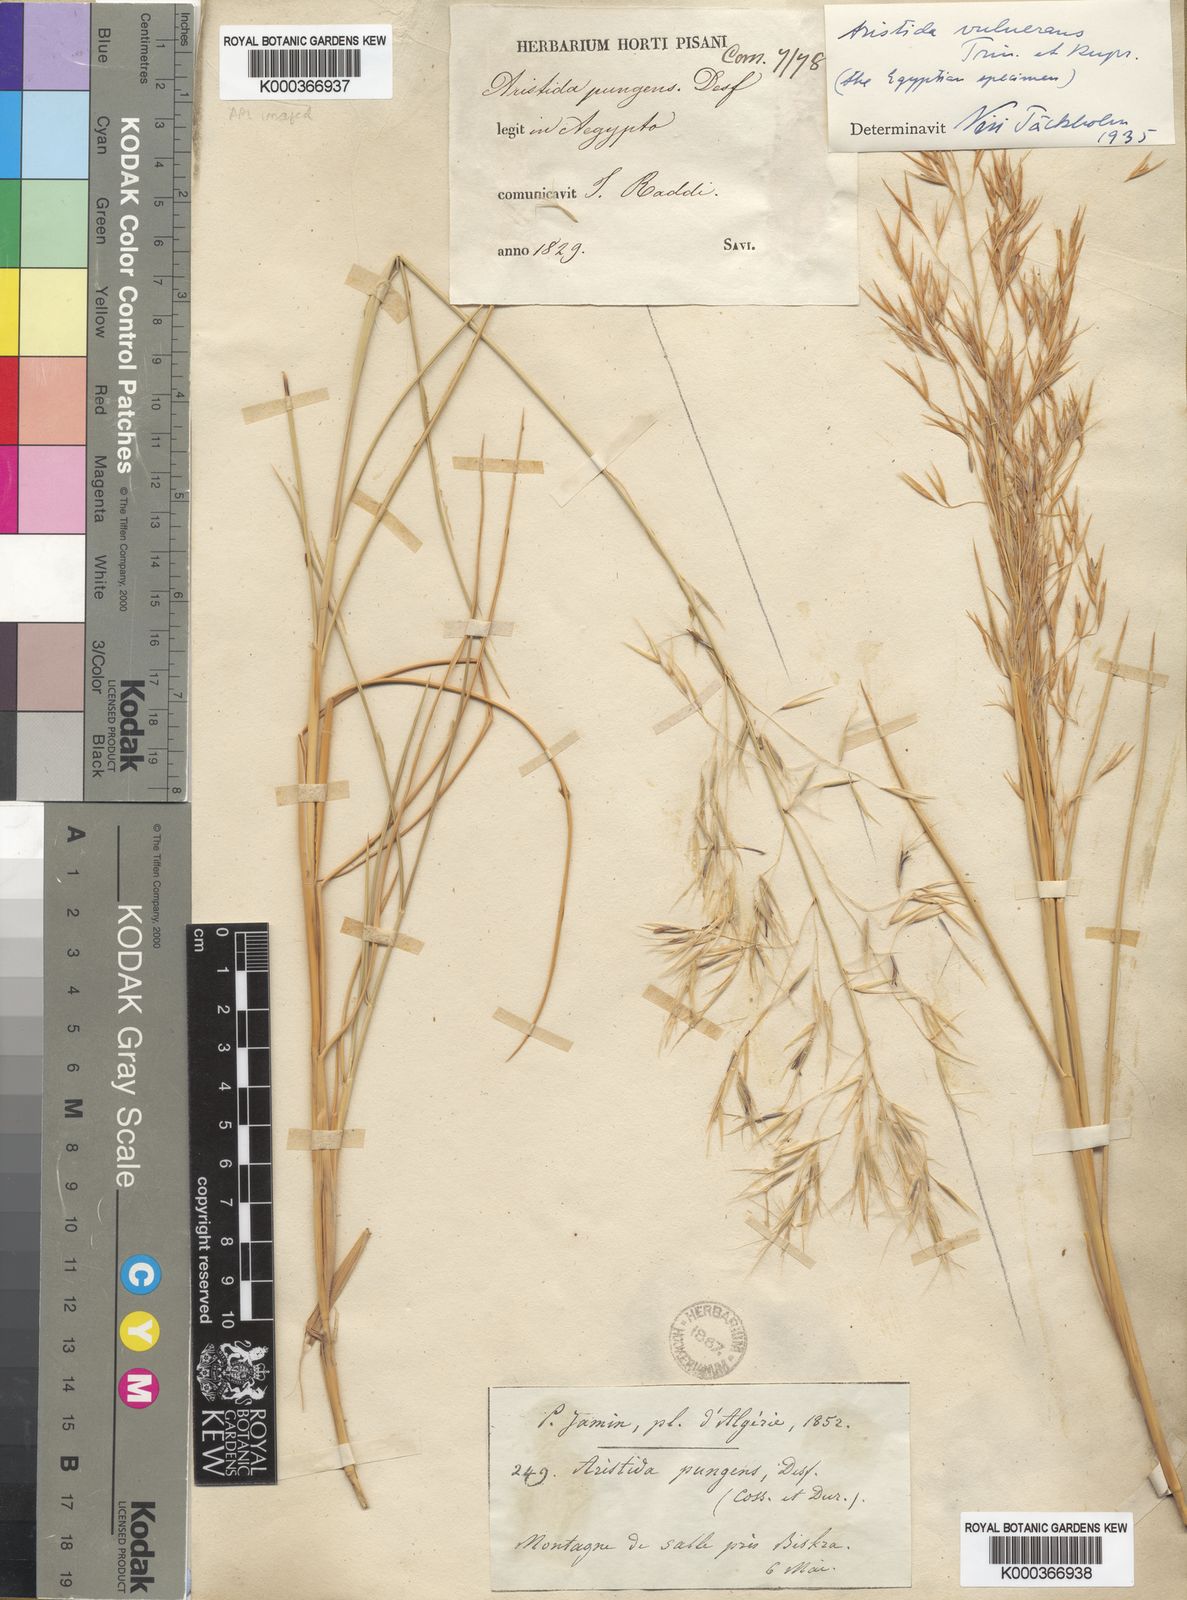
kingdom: Plantae
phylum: Tracheophyta
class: Liliopsida
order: Poales
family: Poaceae
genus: Stipagrostis
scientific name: Stipagrostis vulnerans
